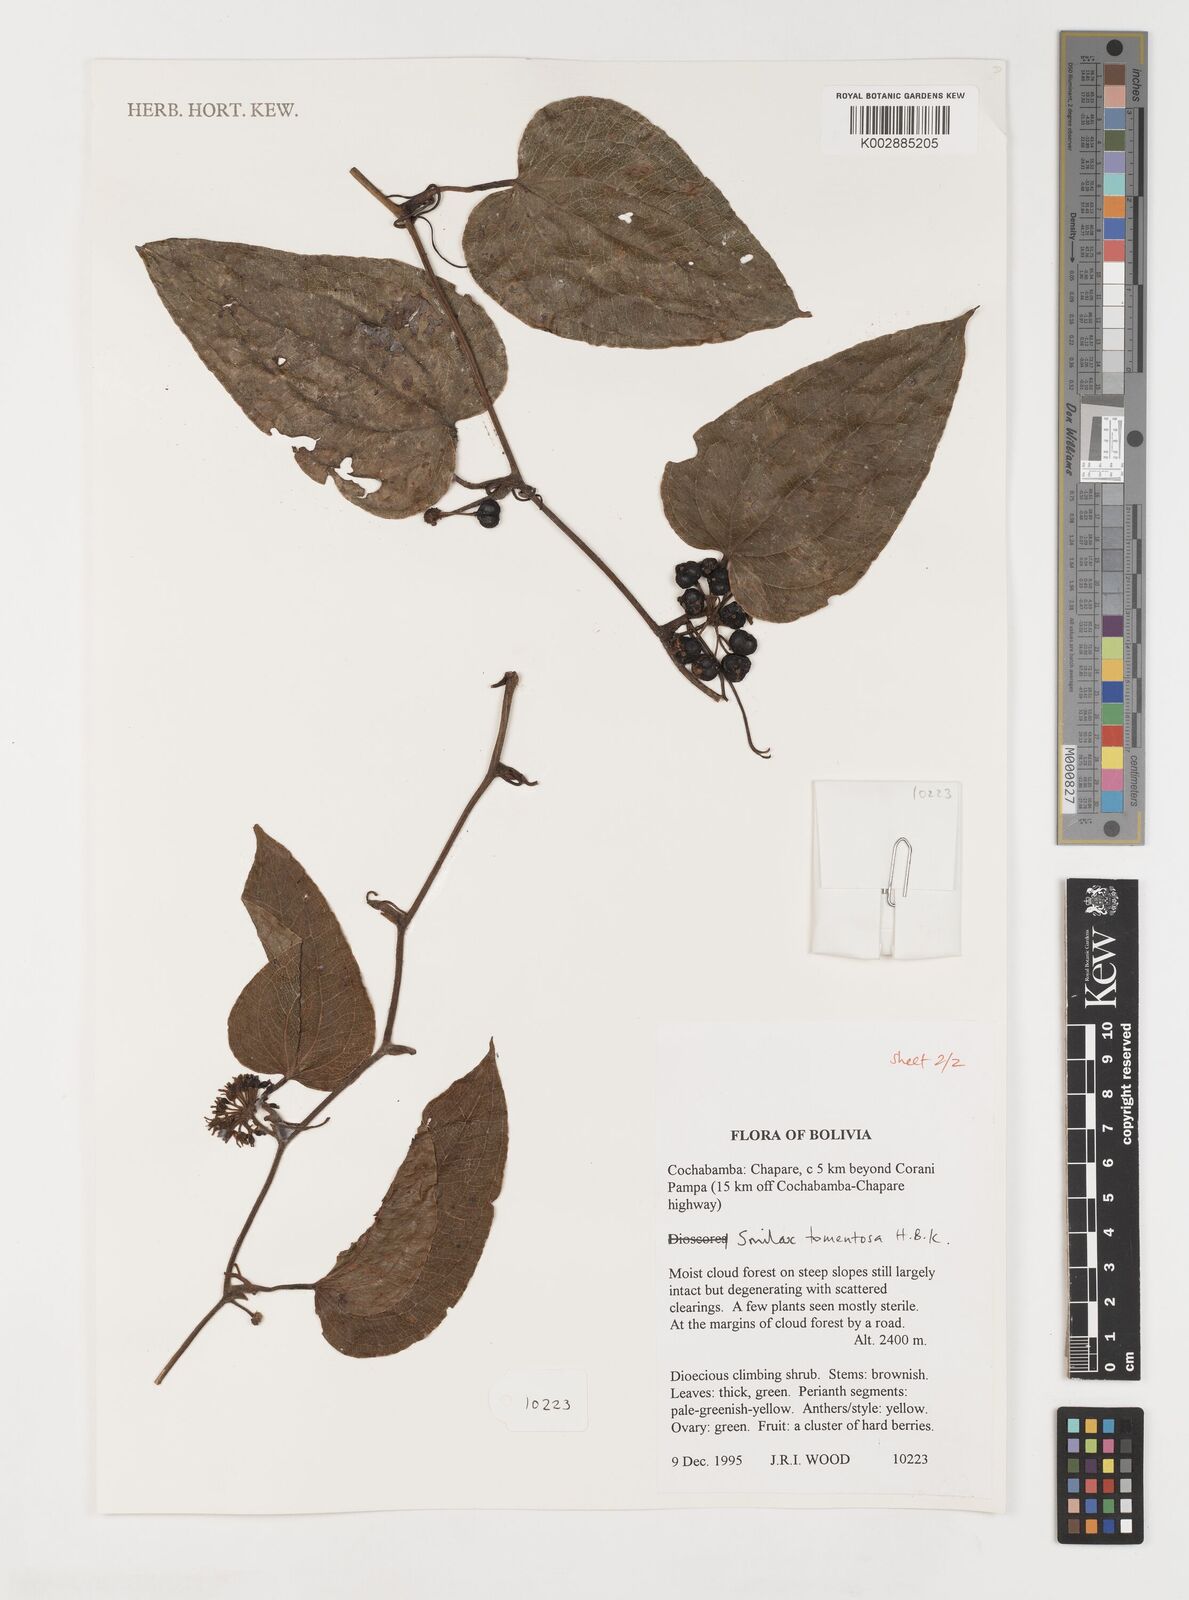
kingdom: Plantae
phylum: Tracheophyta
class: Liliopsida
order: Liliales
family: Smilacaceae
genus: Smilax
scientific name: Smilax tomentosa
